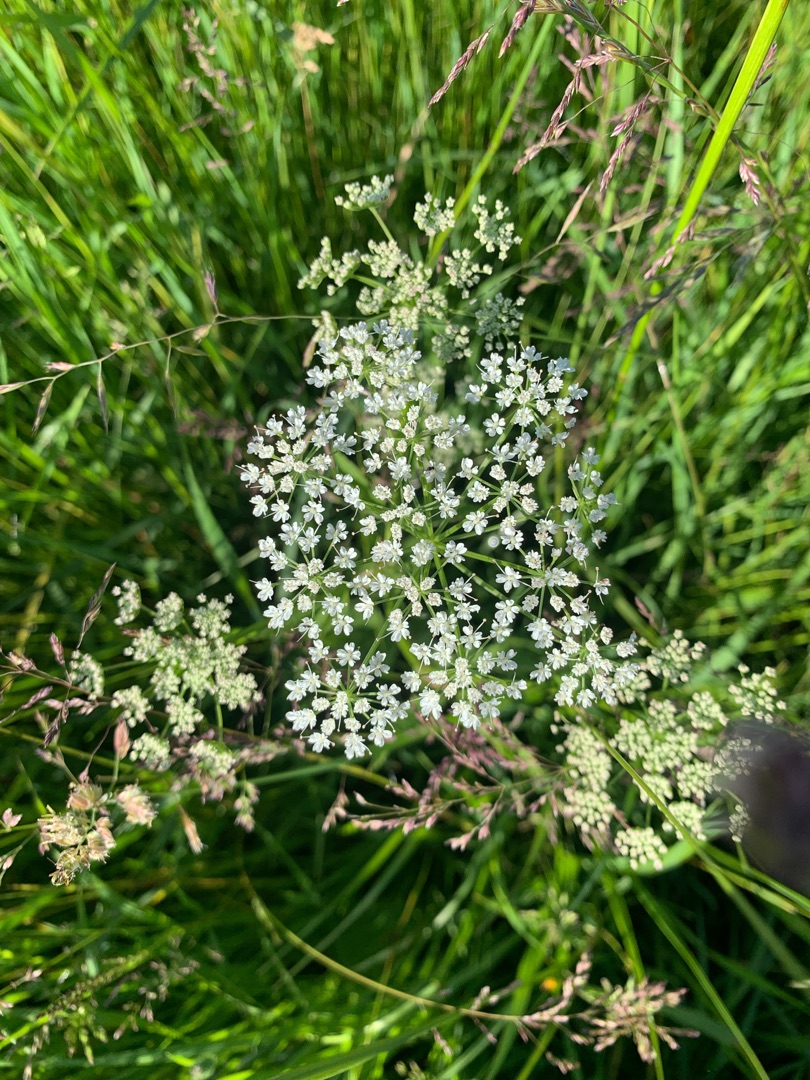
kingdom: Plantae
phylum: Tracheophyta
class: Magnoliopsida
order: Apiales
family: Apiaceae
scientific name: Apiaceae
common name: Skærmplantefamilien
